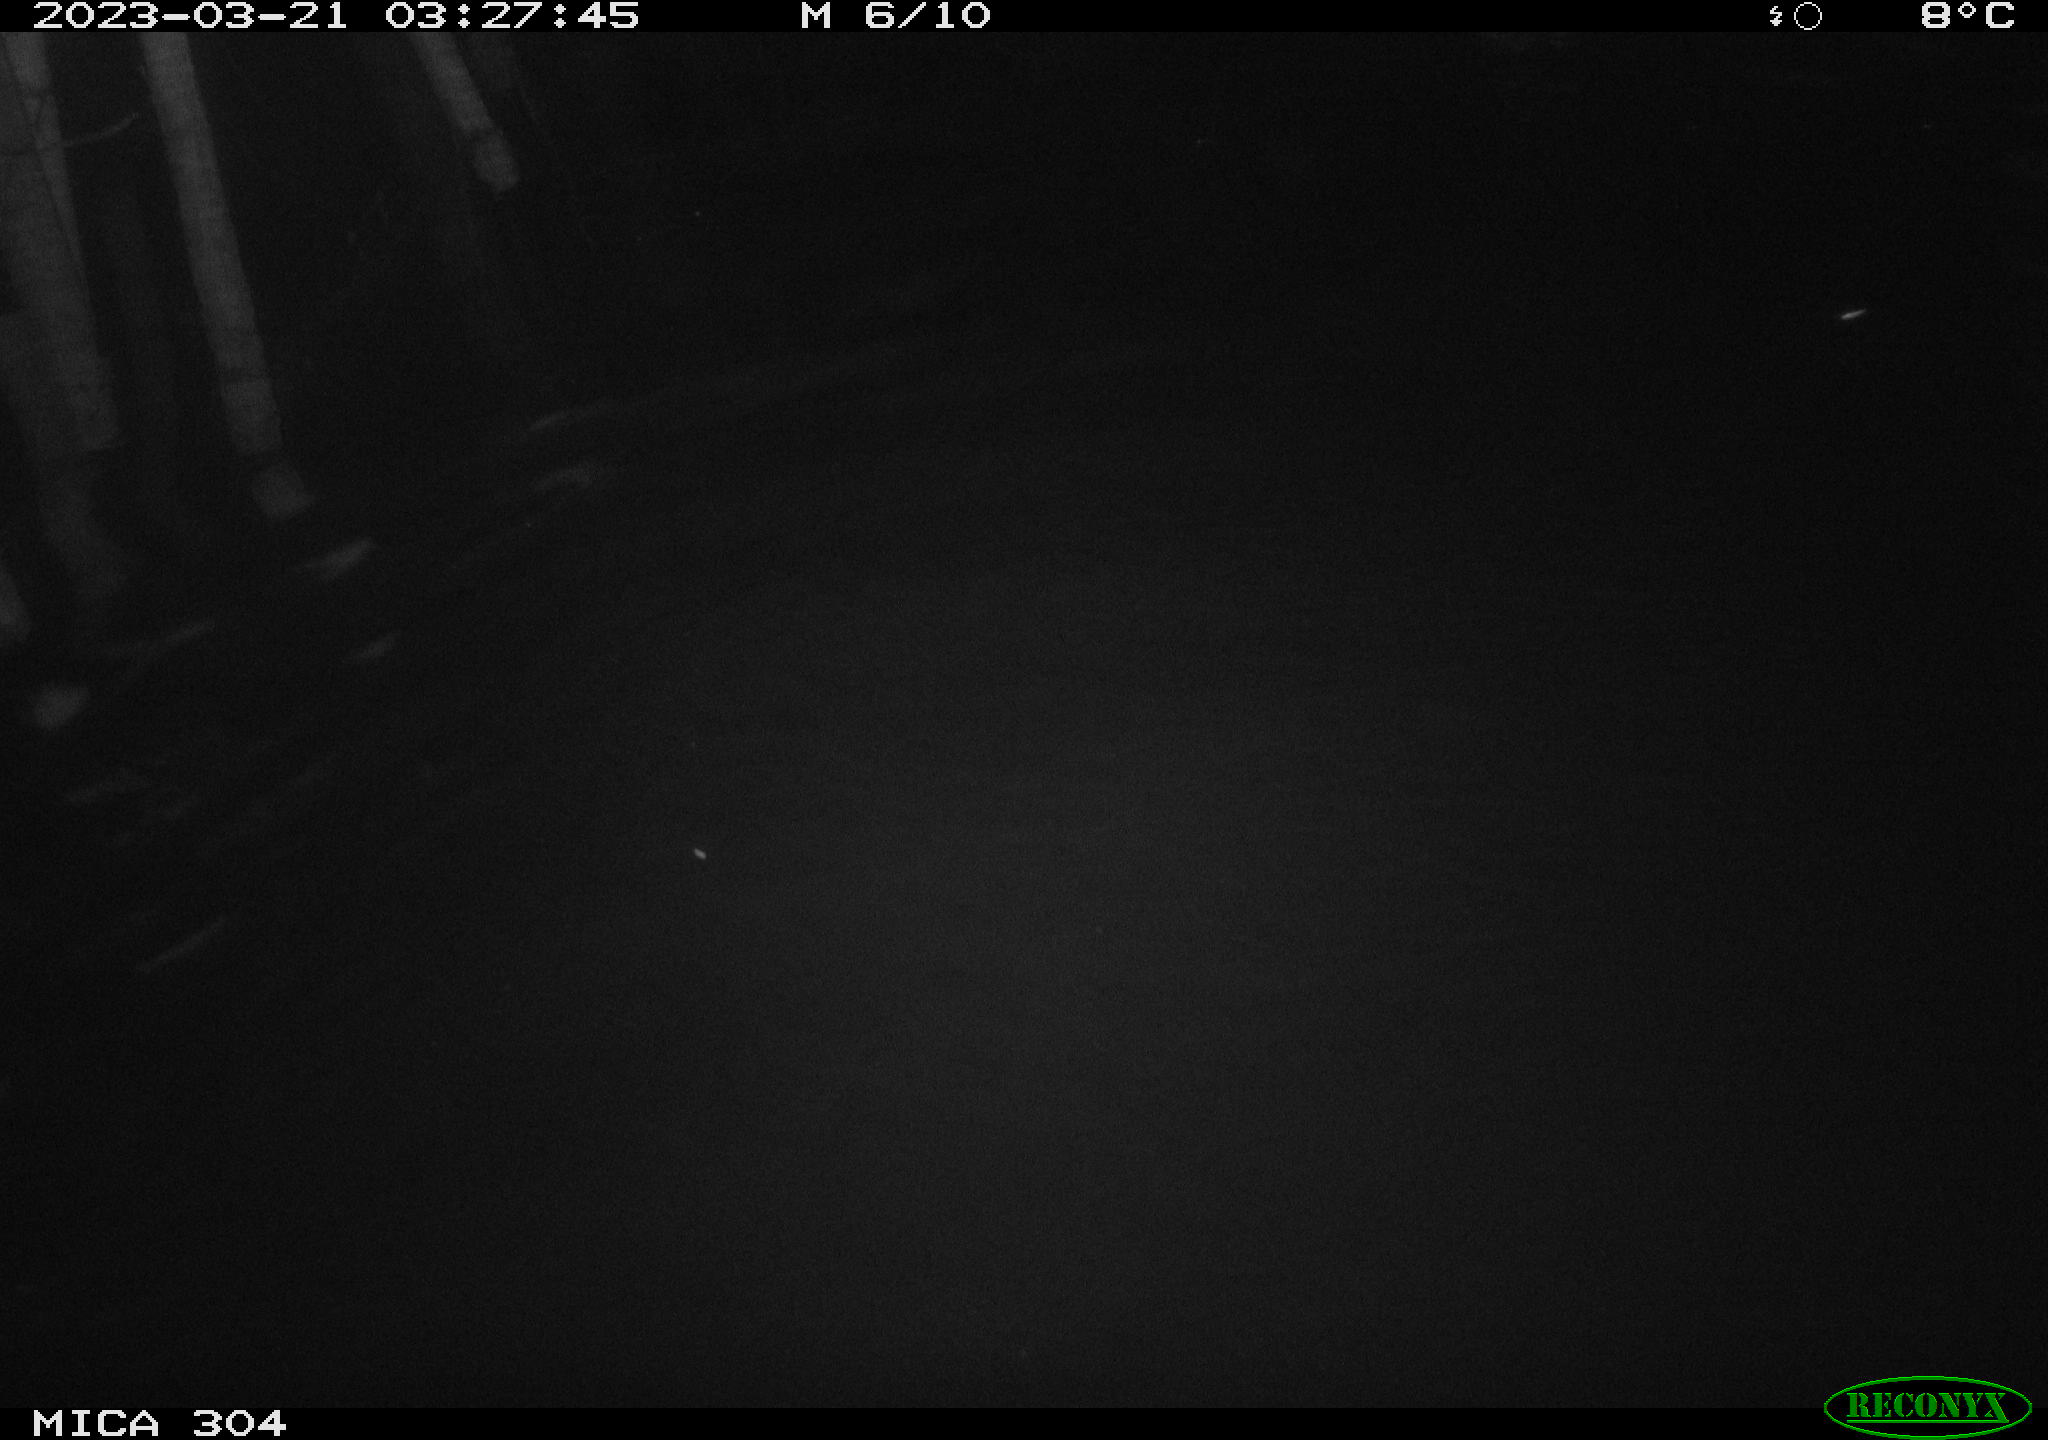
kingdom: Animalia
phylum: Chordata
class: Aves
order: Anseriformes
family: Anatidae
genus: Anas
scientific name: Anas
